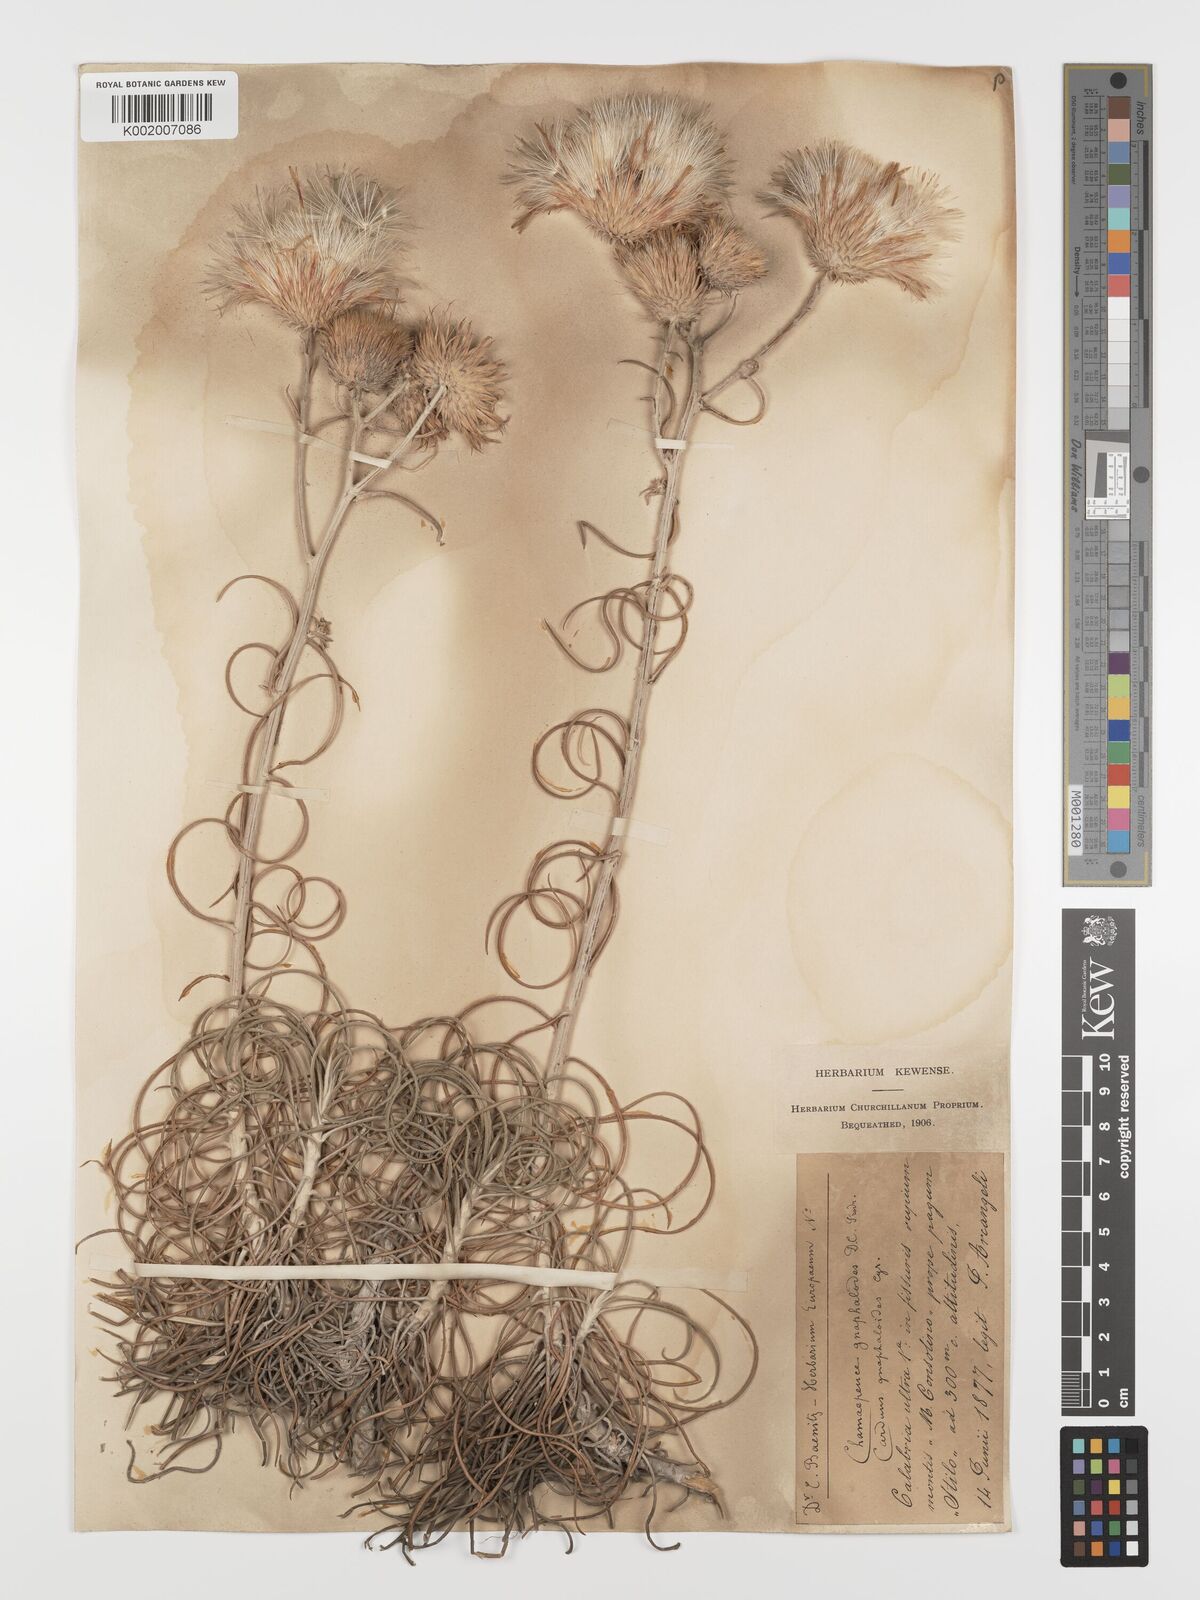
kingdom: Plantae
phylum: Tracheophyta
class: Magnoliopsida
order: Asterales
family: Asteraceae
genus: Ptilostemon
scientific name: Ptilostemon gnaphaloides
